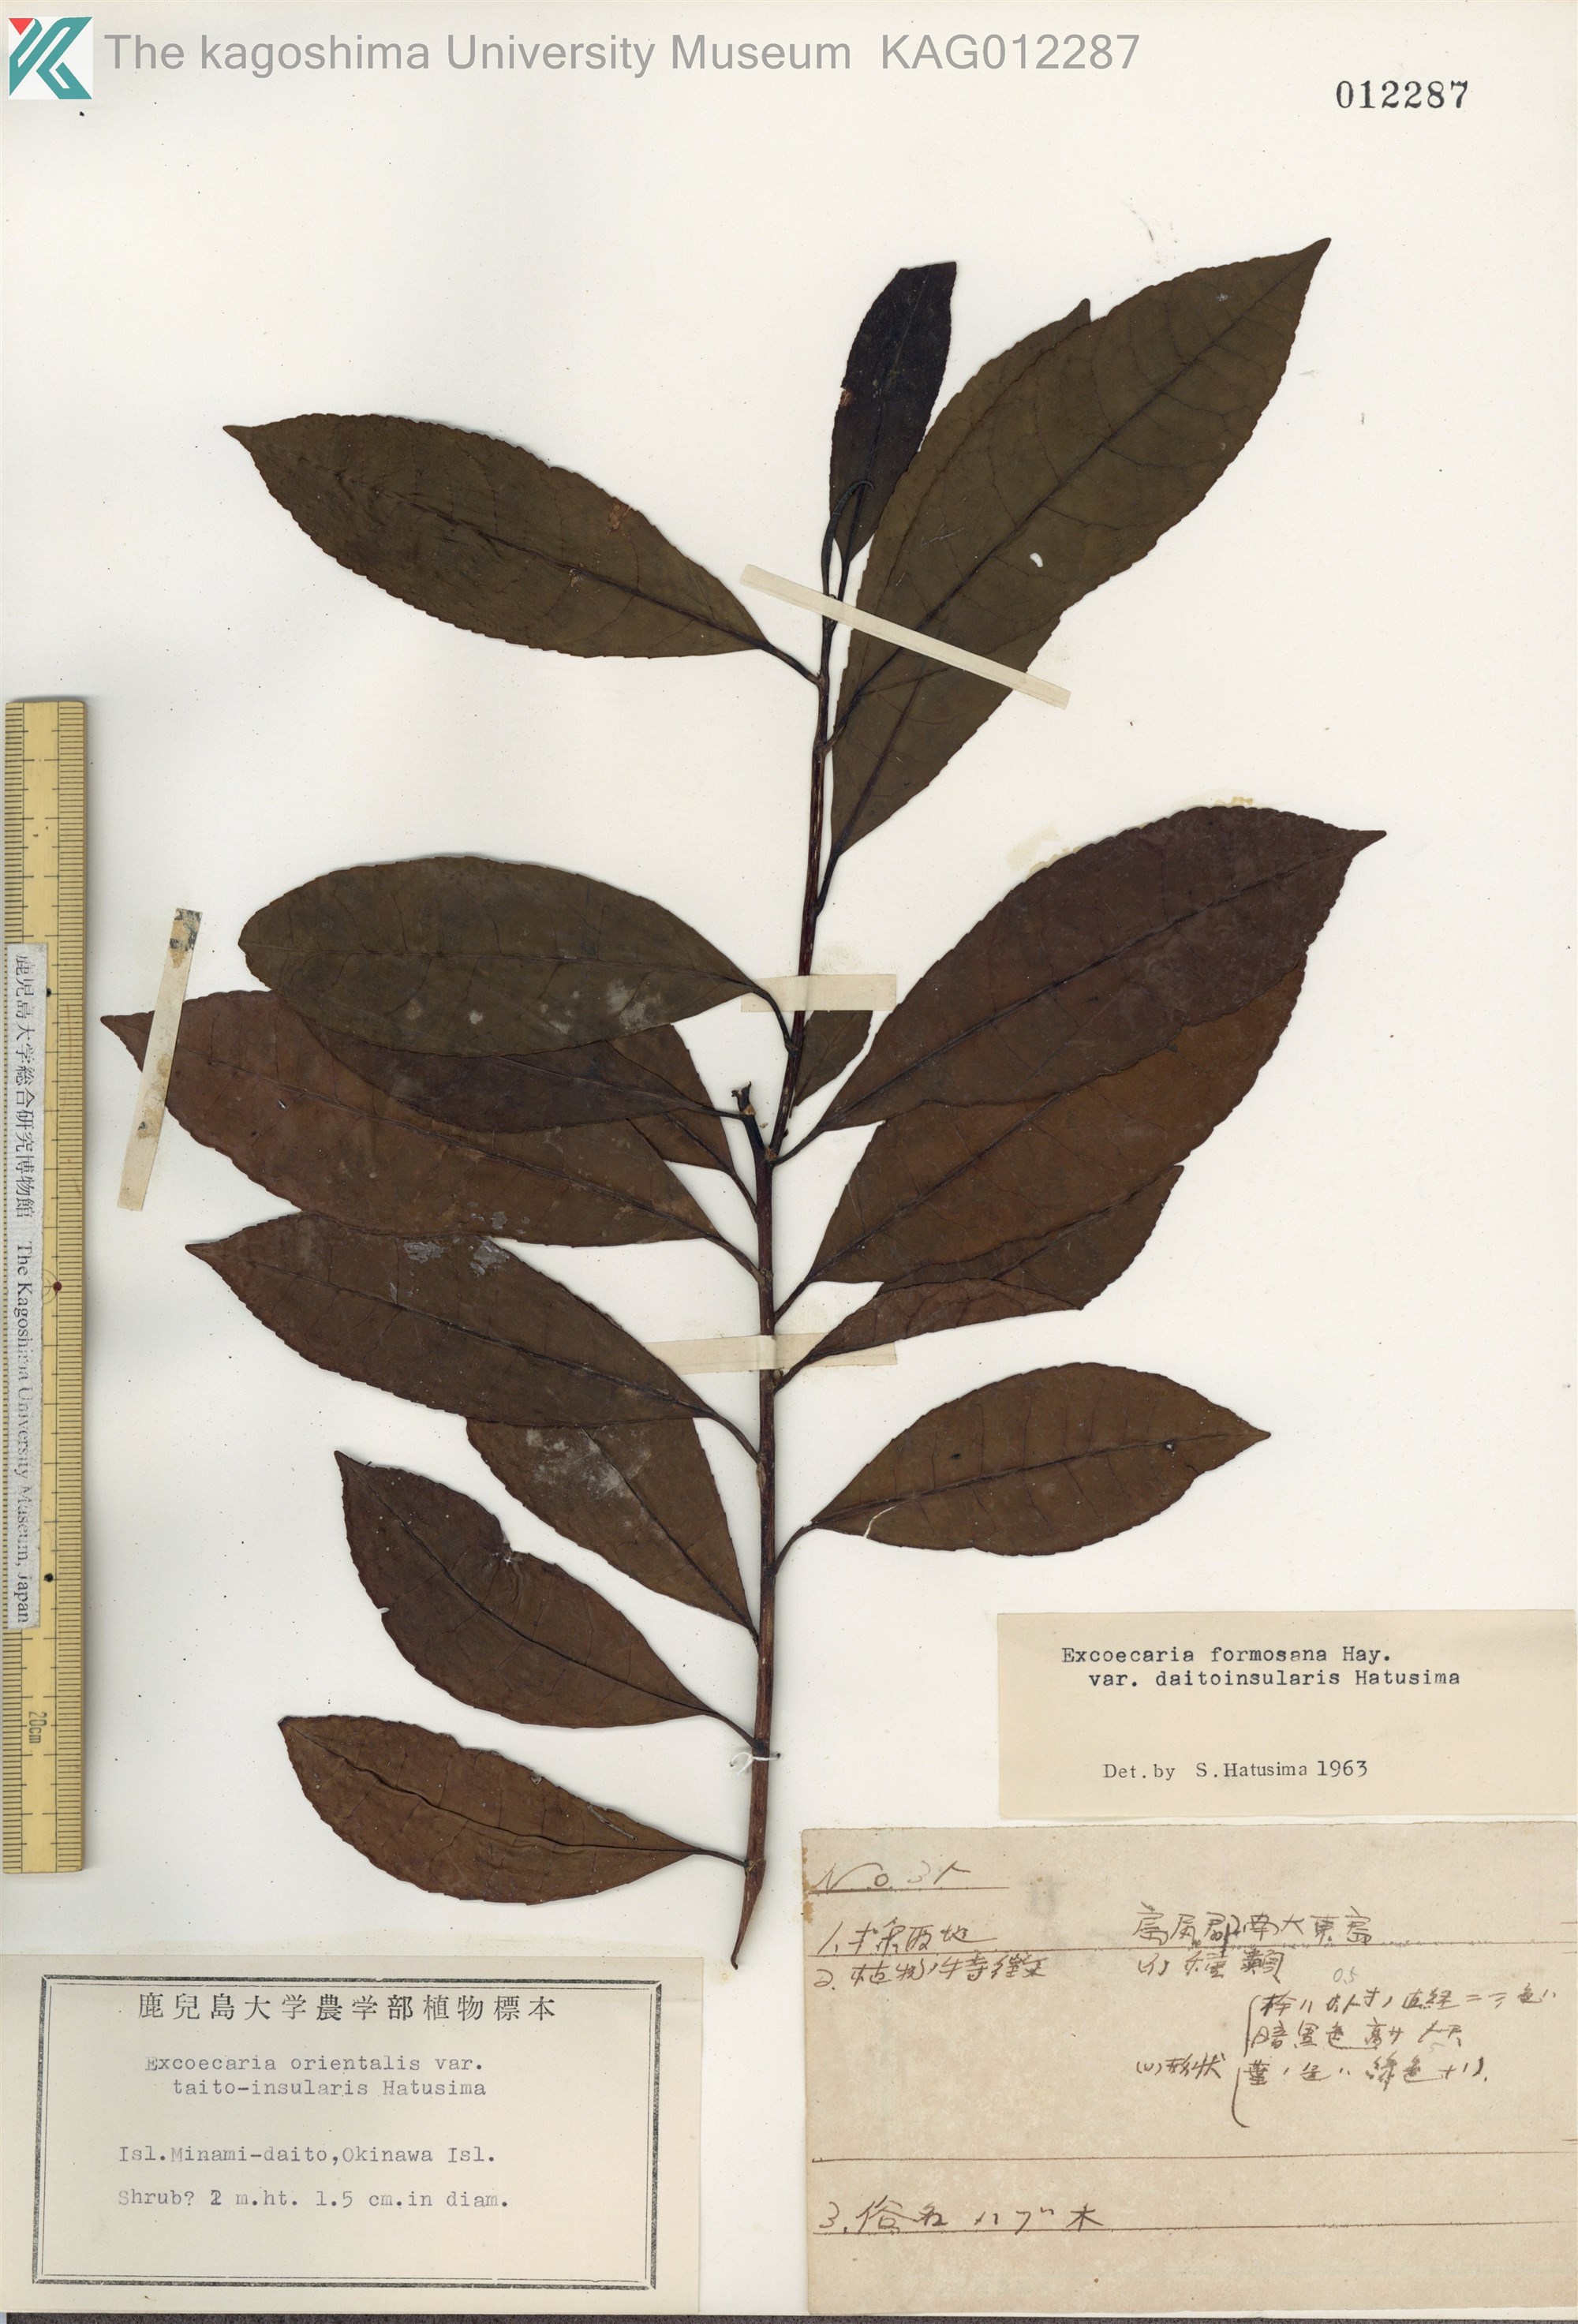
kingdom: Plantae
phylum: Tracheophyta
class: Magnoliopsida
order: Malpighiales
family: Euphorbiaceae
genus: Excoecaria
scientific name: Excoecaria formosana
